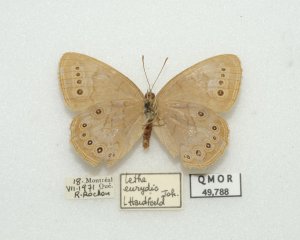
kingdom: Animalia
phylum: Arthropoda
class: Insecta
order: Lepidoptera
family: Nymphalidae
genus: Lethe
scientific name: Lethe eurydice
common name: Eyed Brown
